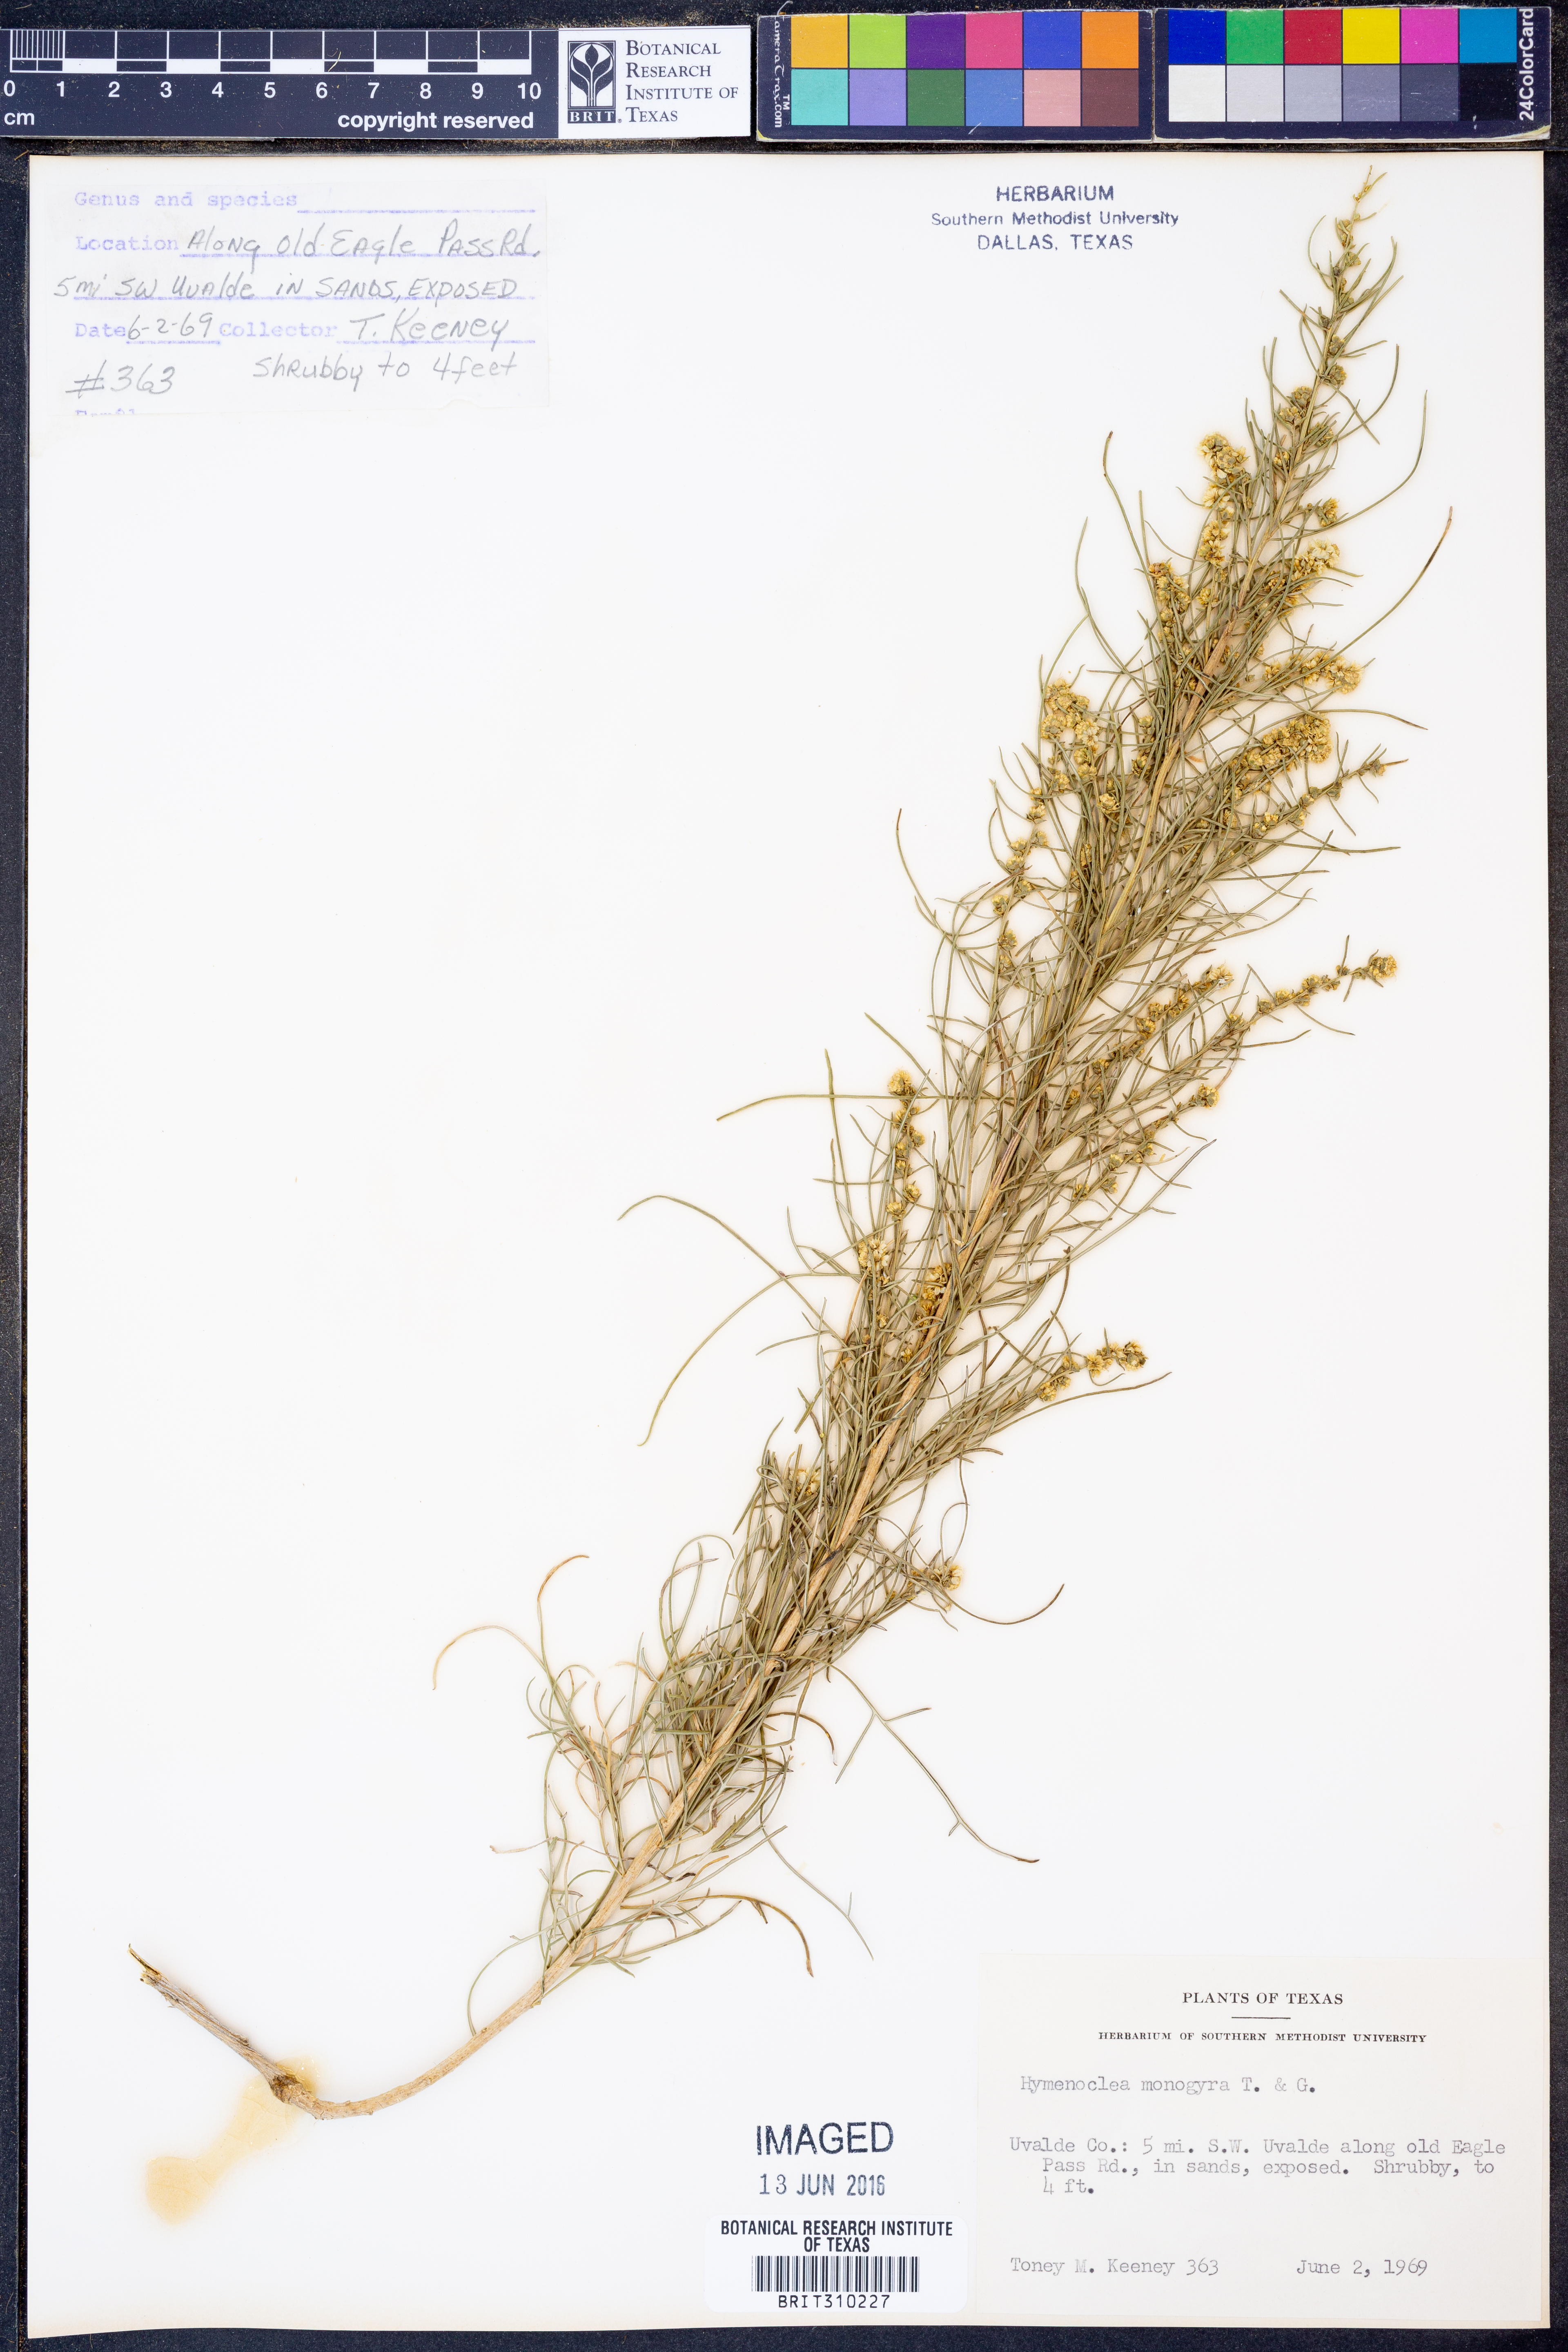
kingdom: Plantae
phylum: Tracheophyta
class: Magnoliopsida
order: Asterales
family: Asteraceae
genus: Ambrosia
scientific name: Ambrosia monogyra
